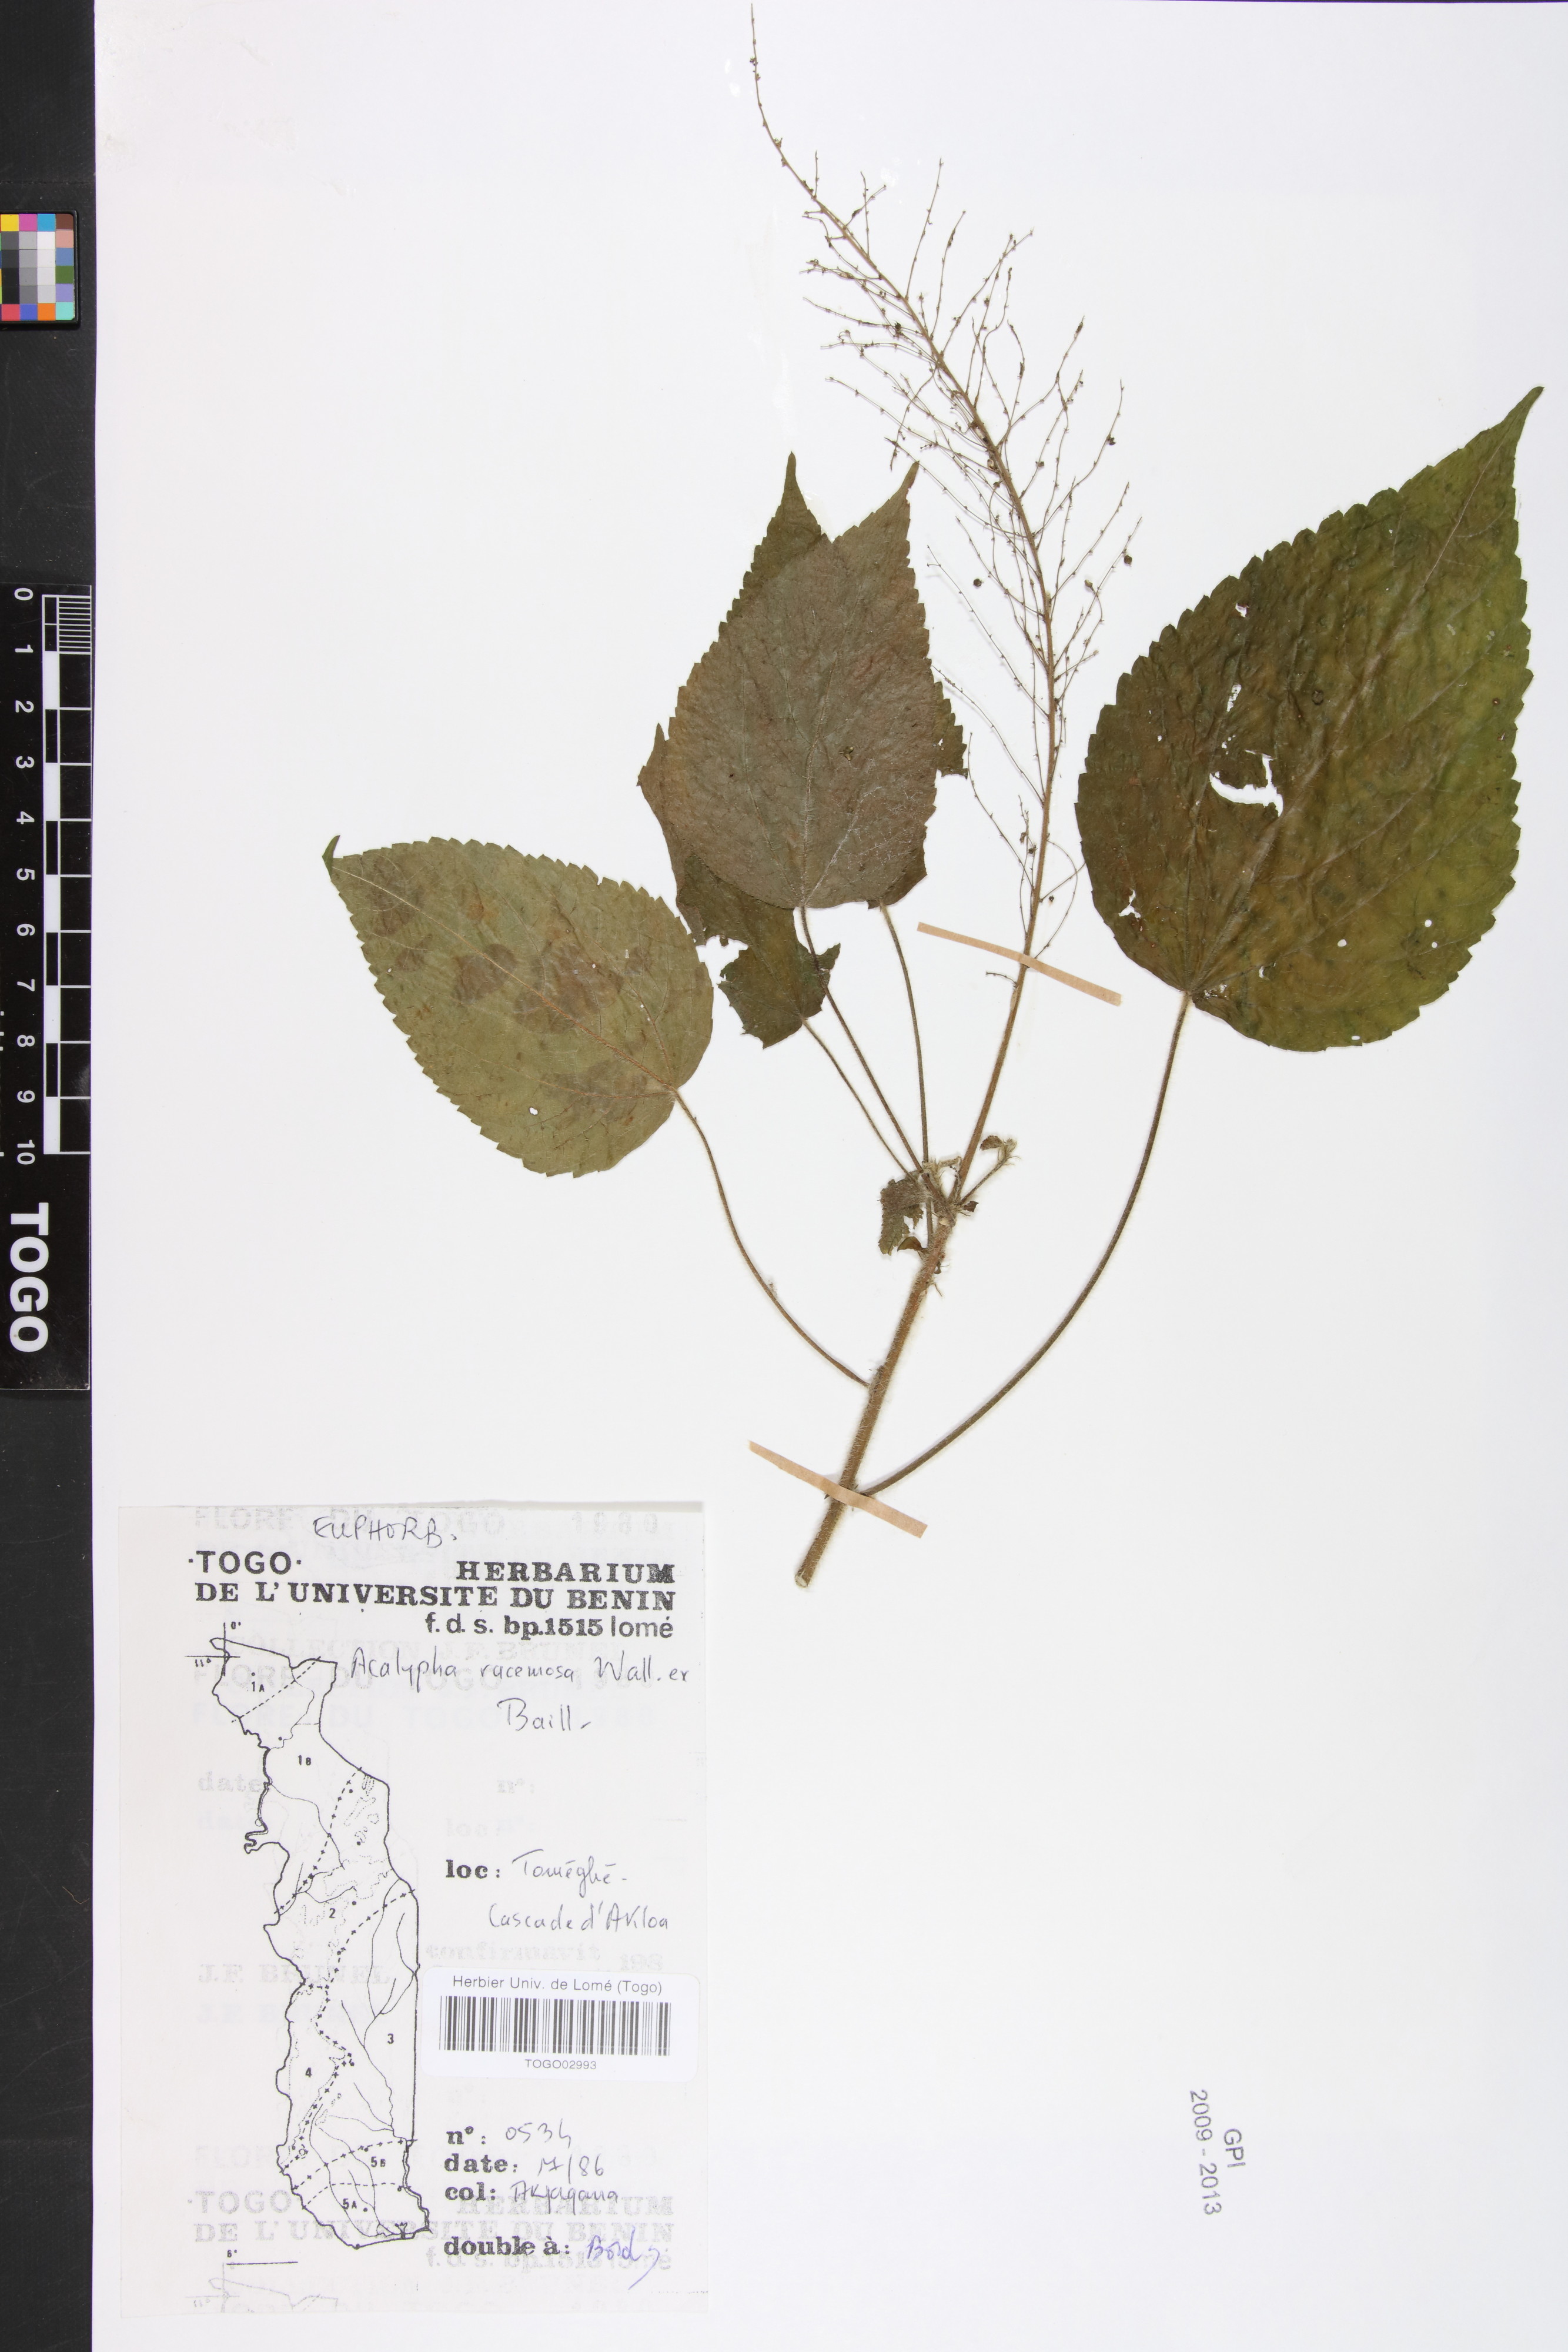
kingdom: Plantae
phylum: Tracheophyta
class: Magnoliopsida
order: Malpighiales
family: Euphorbiaceae
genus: Acalypha
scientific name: Acalypha paniculata
